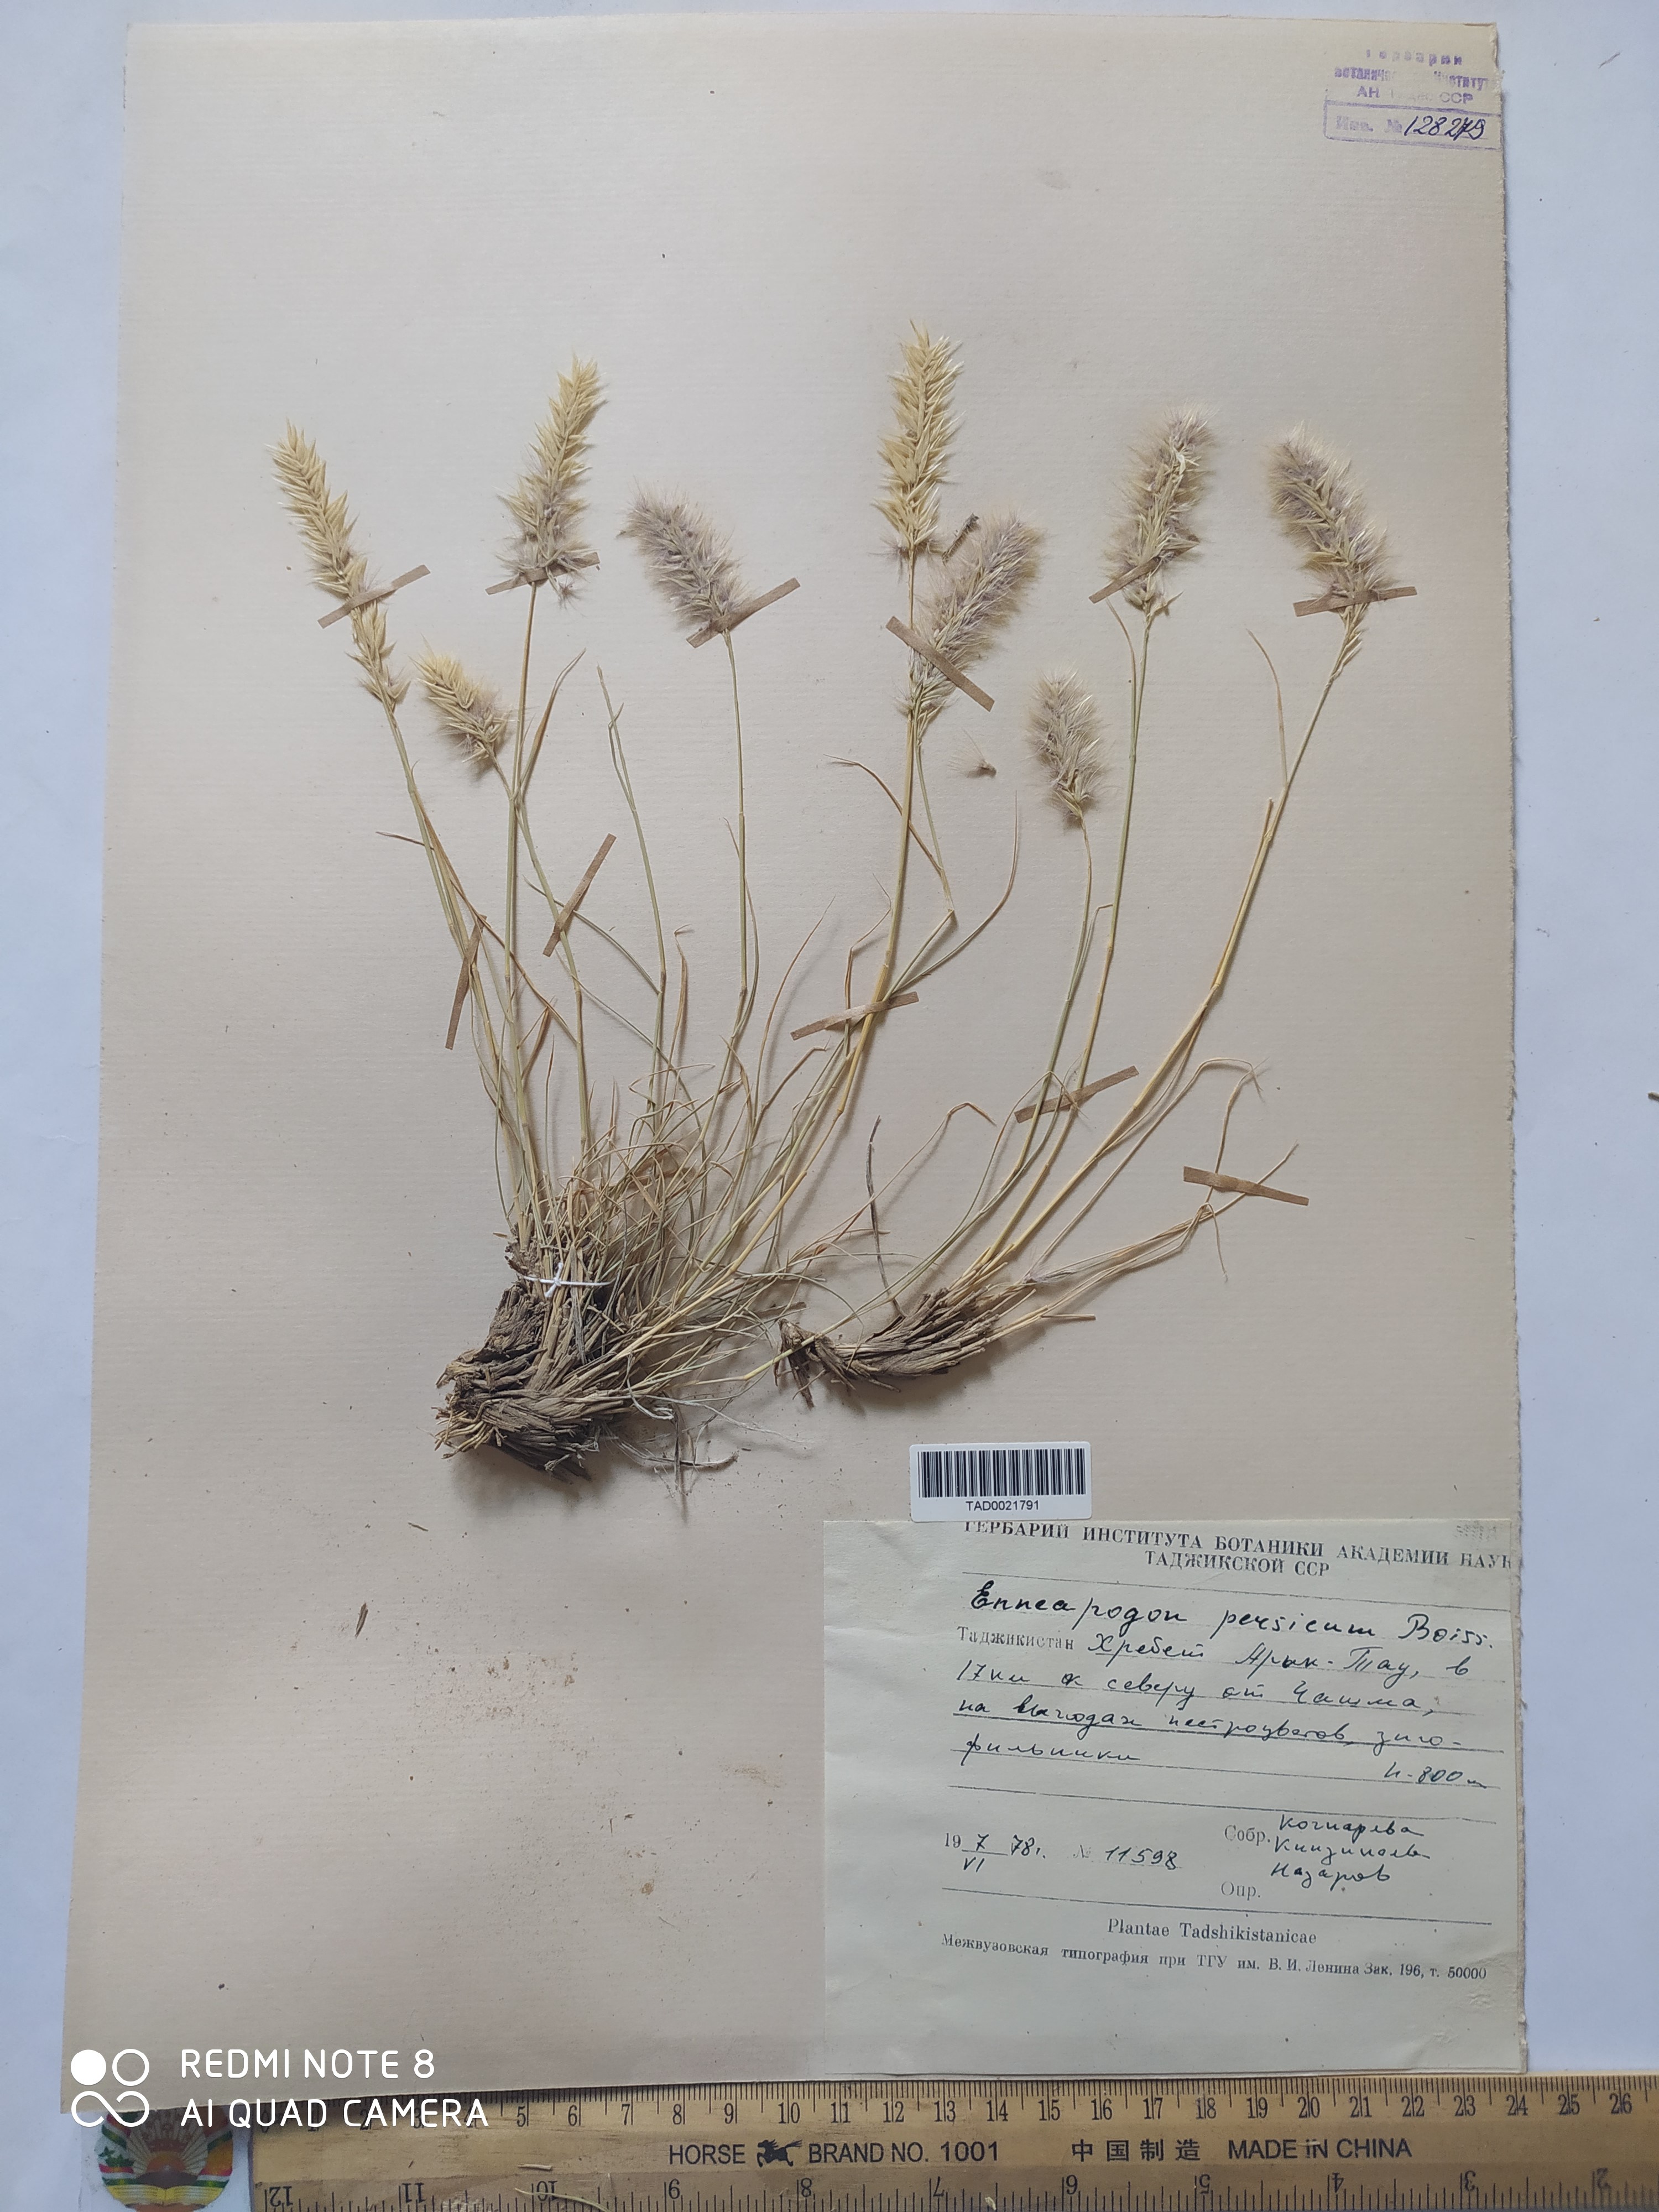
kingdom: Plantae
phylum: Tracheophyta
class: Liliopsida
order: Poales
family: Poaceae
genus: Enneapogon
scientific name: Enneapogon persicus
